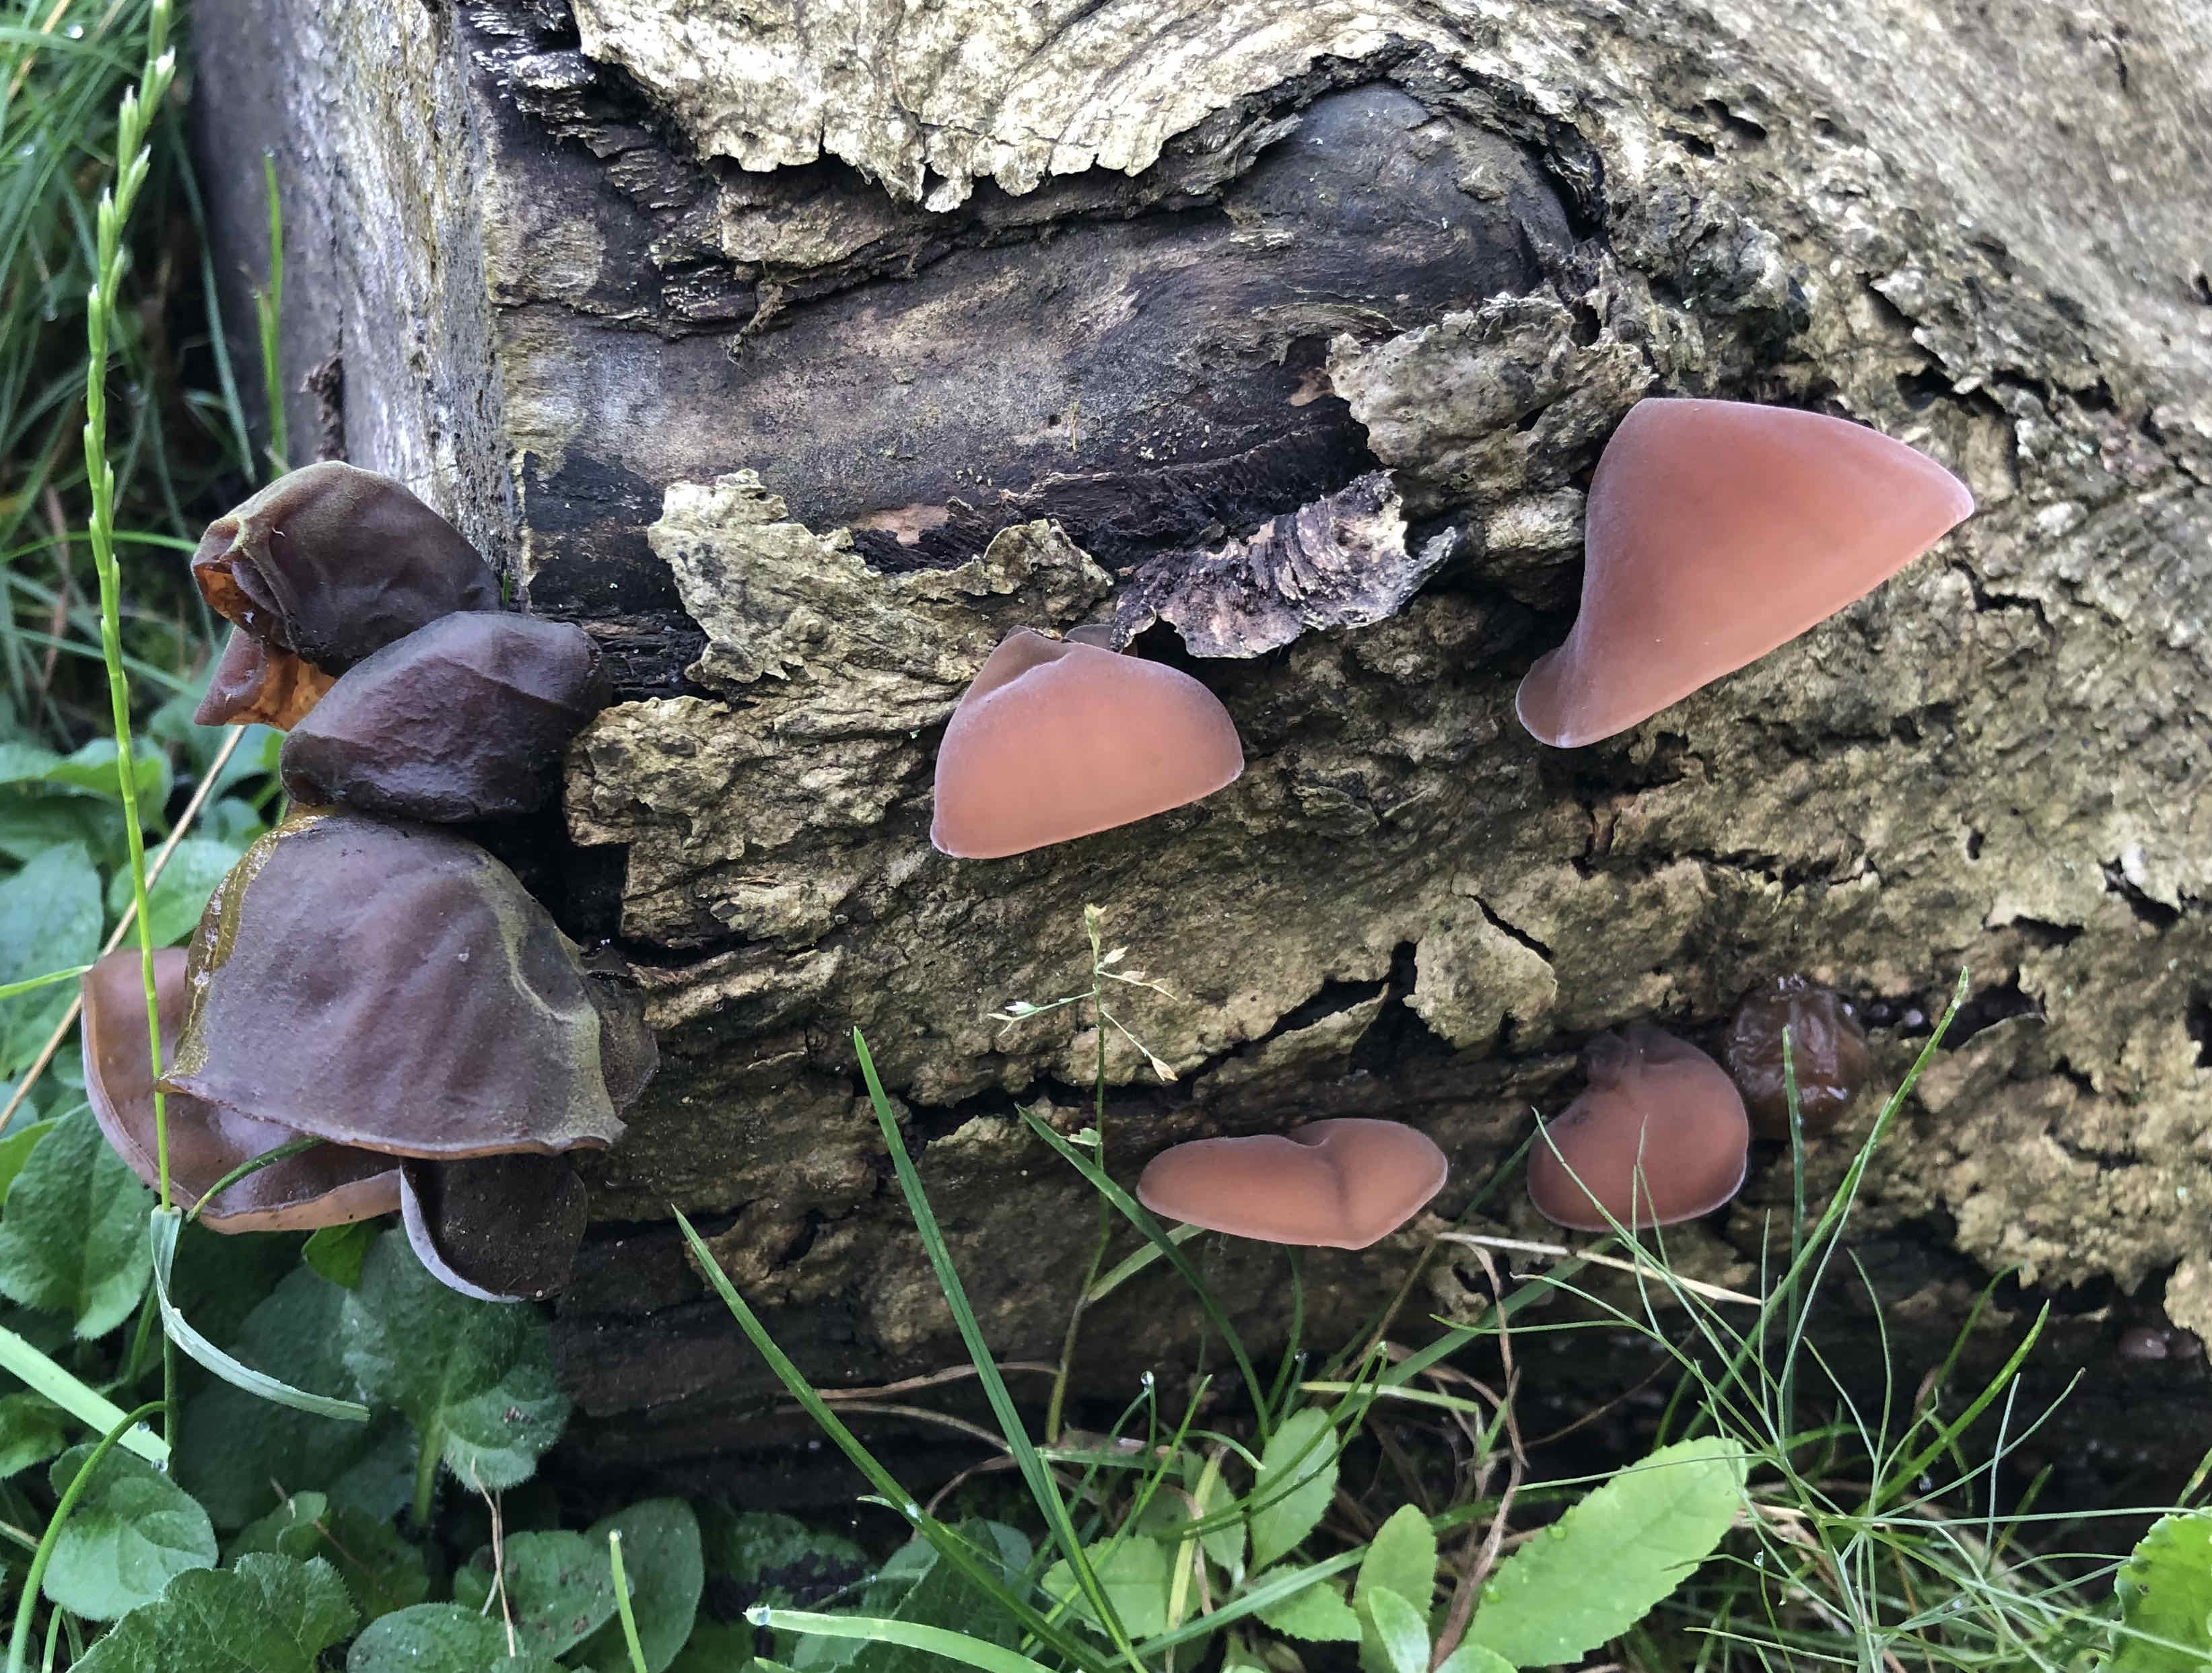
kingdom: Fungi
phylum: Basidiomycota
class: Agaricomycetes
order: Auriculariales
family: Auriculariaceae
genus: Auricularia
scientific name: Auricularia auricula-judae
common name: almindelig judasøre
